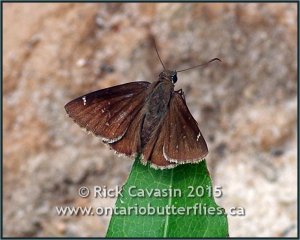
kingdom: Animalia
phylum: Arthropoda
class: Insecta
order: Lepidoptera
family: Hesperiidae
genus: Thorybes
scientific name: Thorybes mexicana
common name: Confused Cloudywing
